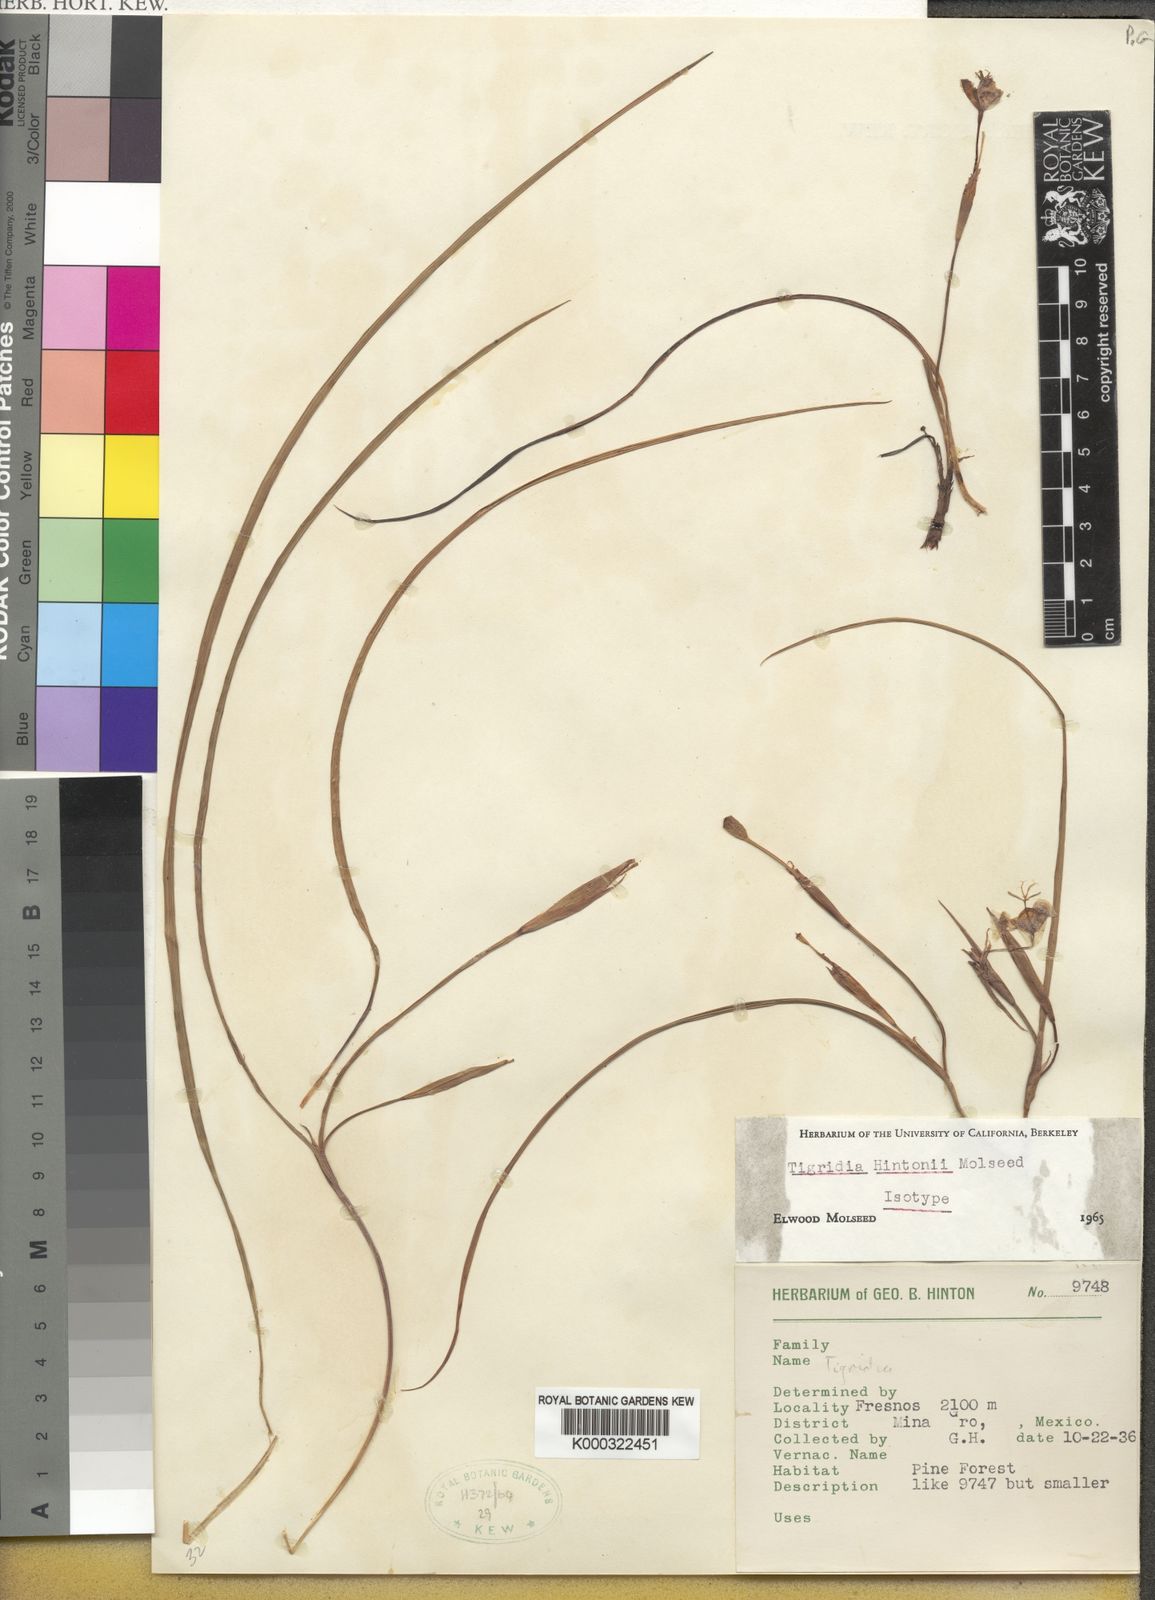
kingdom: Plantae
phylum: Tracheophyta
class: Liliopsida
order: Asparagales
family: Iridaceae
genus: Tigridia
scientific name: Tigridia hintonii
